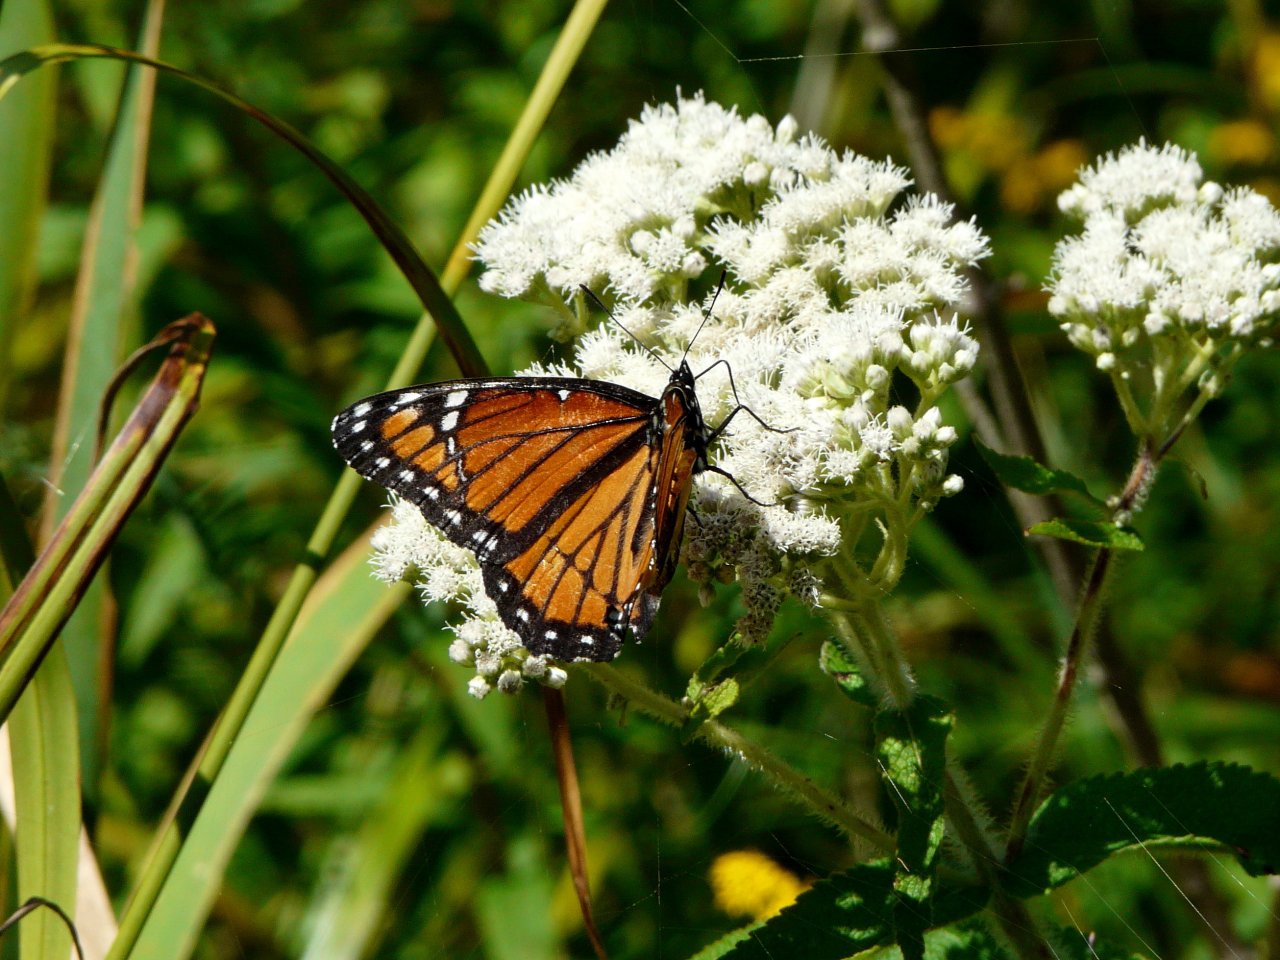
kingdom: Animalia
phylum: Arthropoda
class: Insecta
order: Lepidoptera
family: Nymphalidae
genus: Limenitis
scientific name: Limenitis archippus
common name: Viceroy
